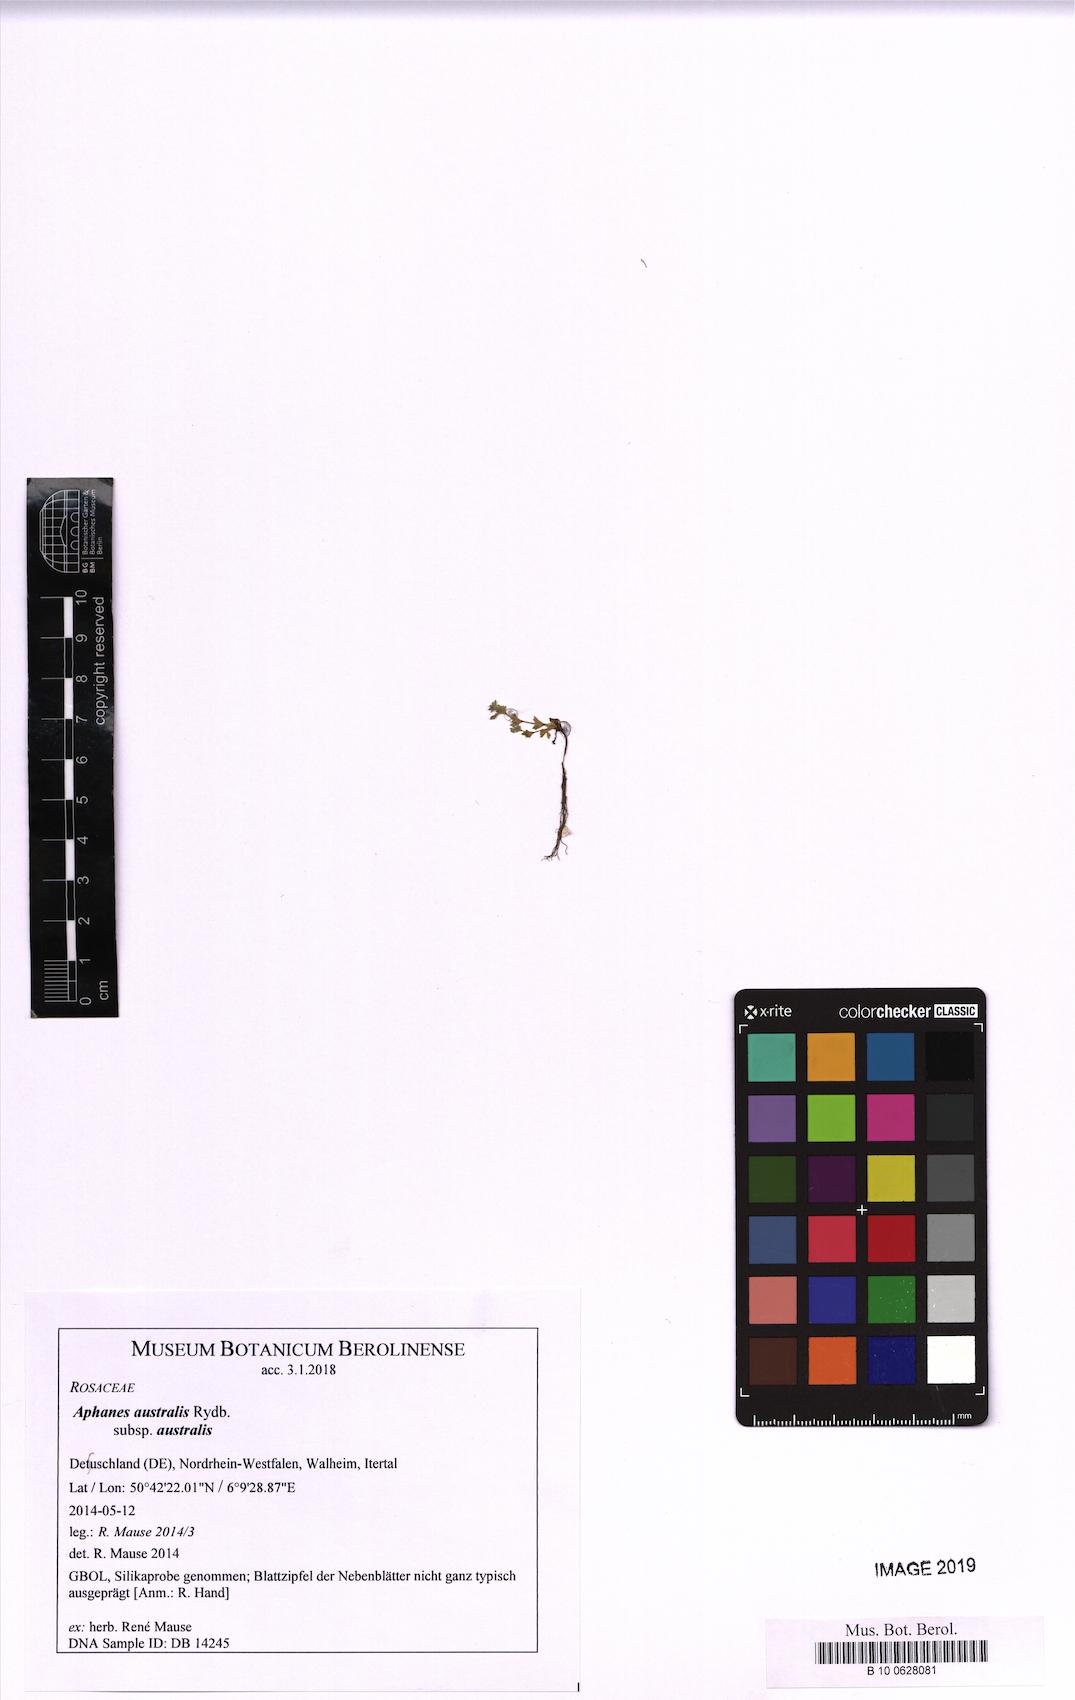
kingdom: Plantae
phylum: Tracheophyta
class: Magnoliopsida
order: Rosales
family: Rosaceae
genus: Aphanes
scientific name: Aphanes australis
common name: Slender parsley-piert
